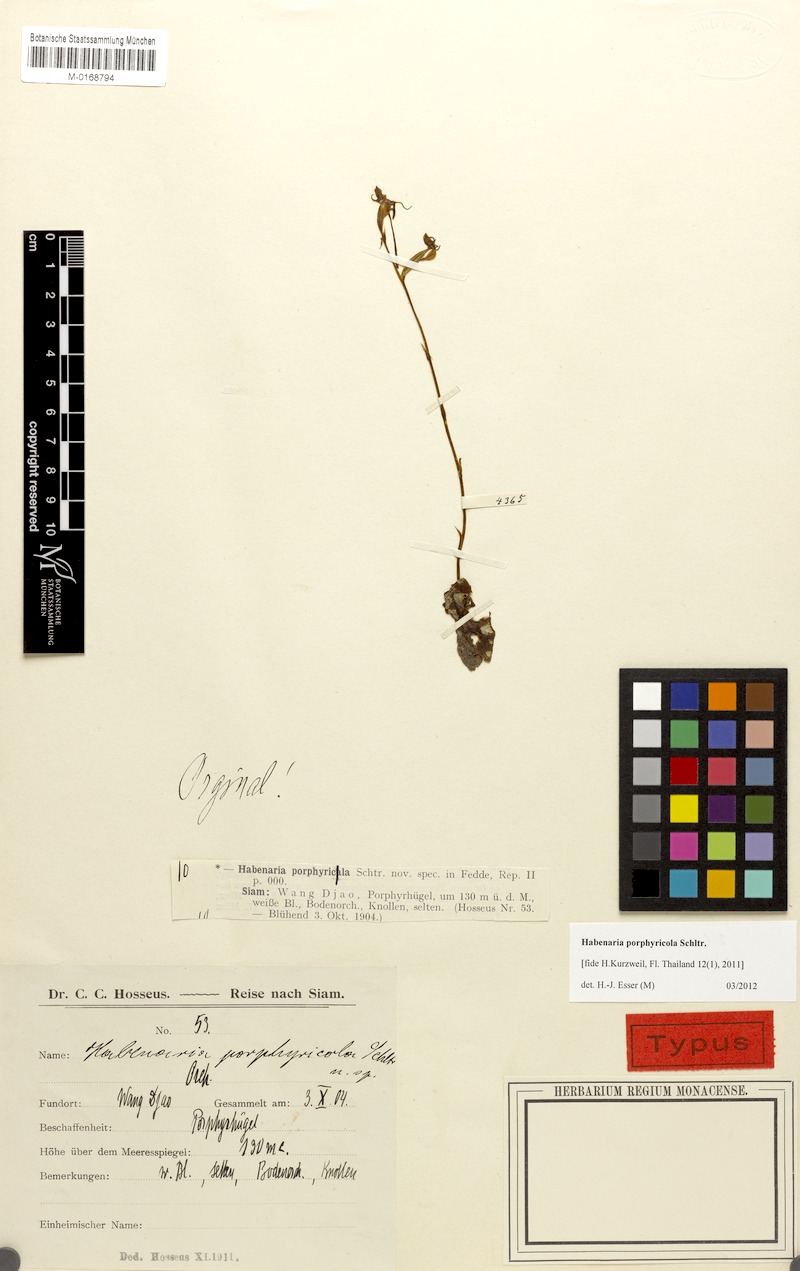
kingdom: Plantae
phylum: Tracheophyta
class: Liliopsida
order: Asparagales
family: Orchidaceae
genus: Habenaria
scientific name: Habenaria porphyricola
